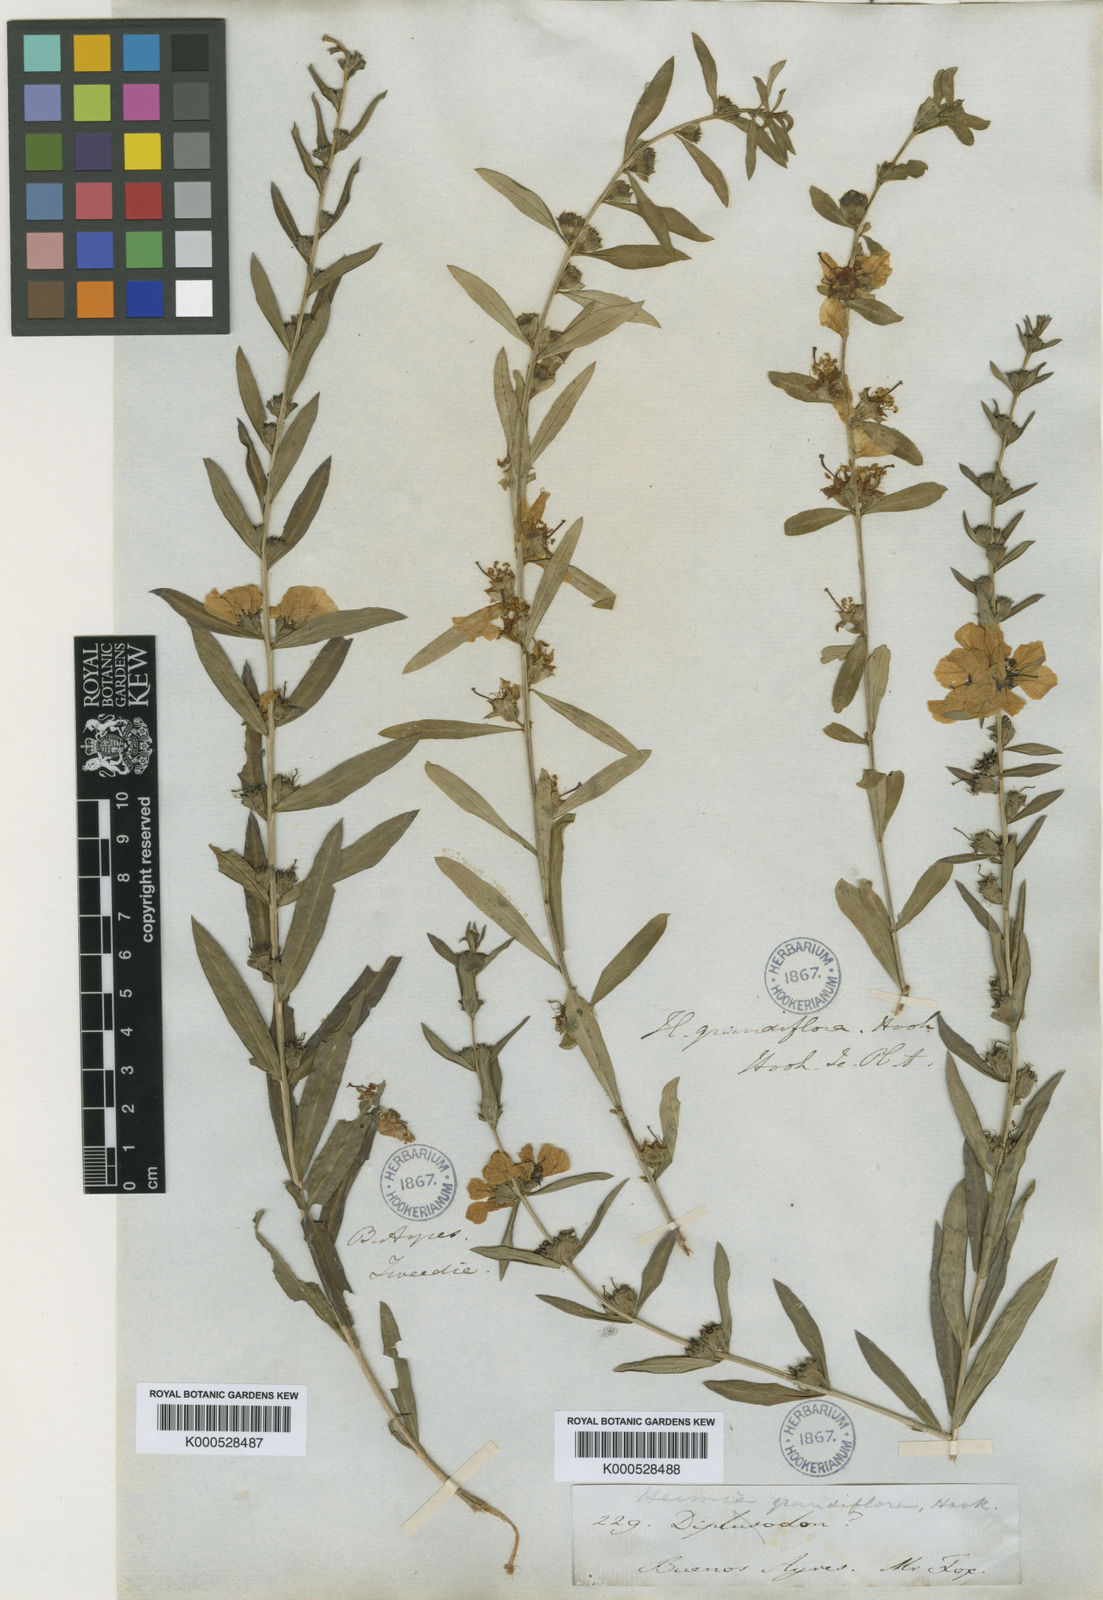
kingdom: Plantae
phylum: Tracheophyta
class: Magnoliopsida
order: Myrtales
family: Lythraceae
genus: Heimia
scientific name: Heimia salicifolia
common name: Willow-leaf heimia
